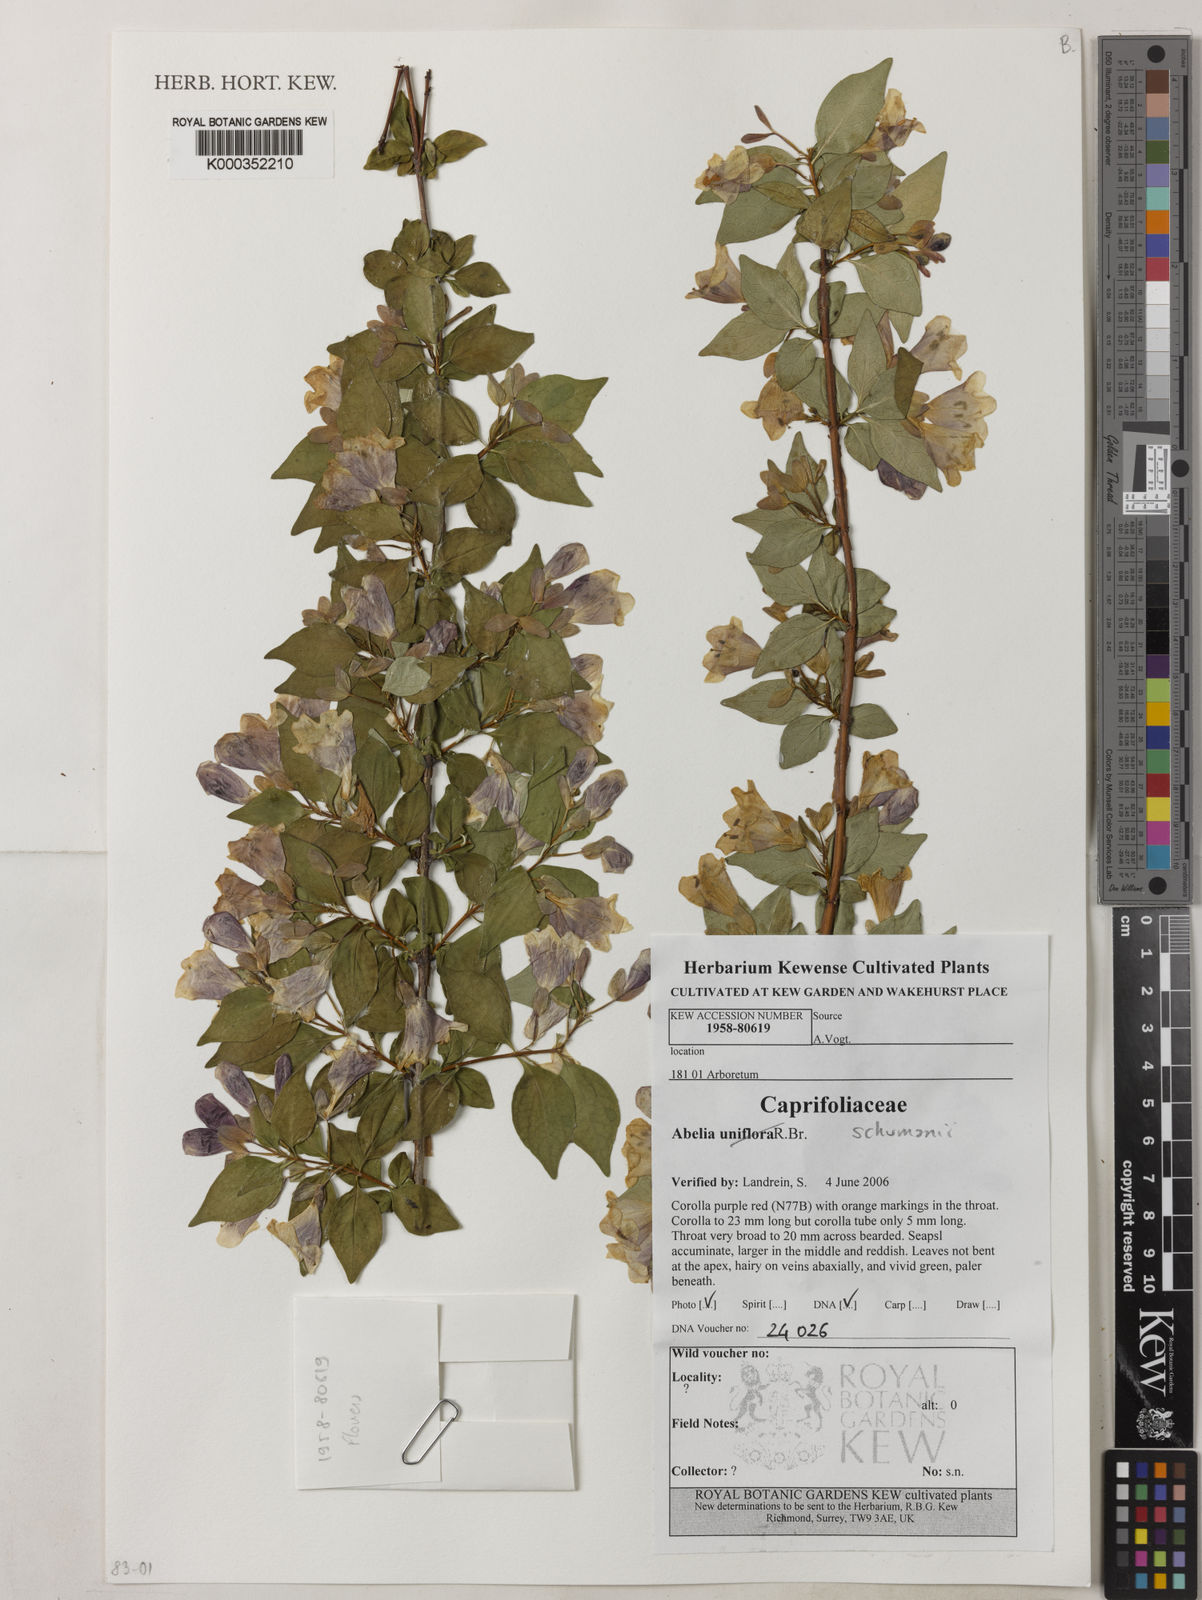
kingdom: Plantae
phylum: Tracheophyta
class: Magnoliopsida
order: Dipsacales
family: Caprifoliaceae
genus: Abelia
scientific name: Abelia uniflora
